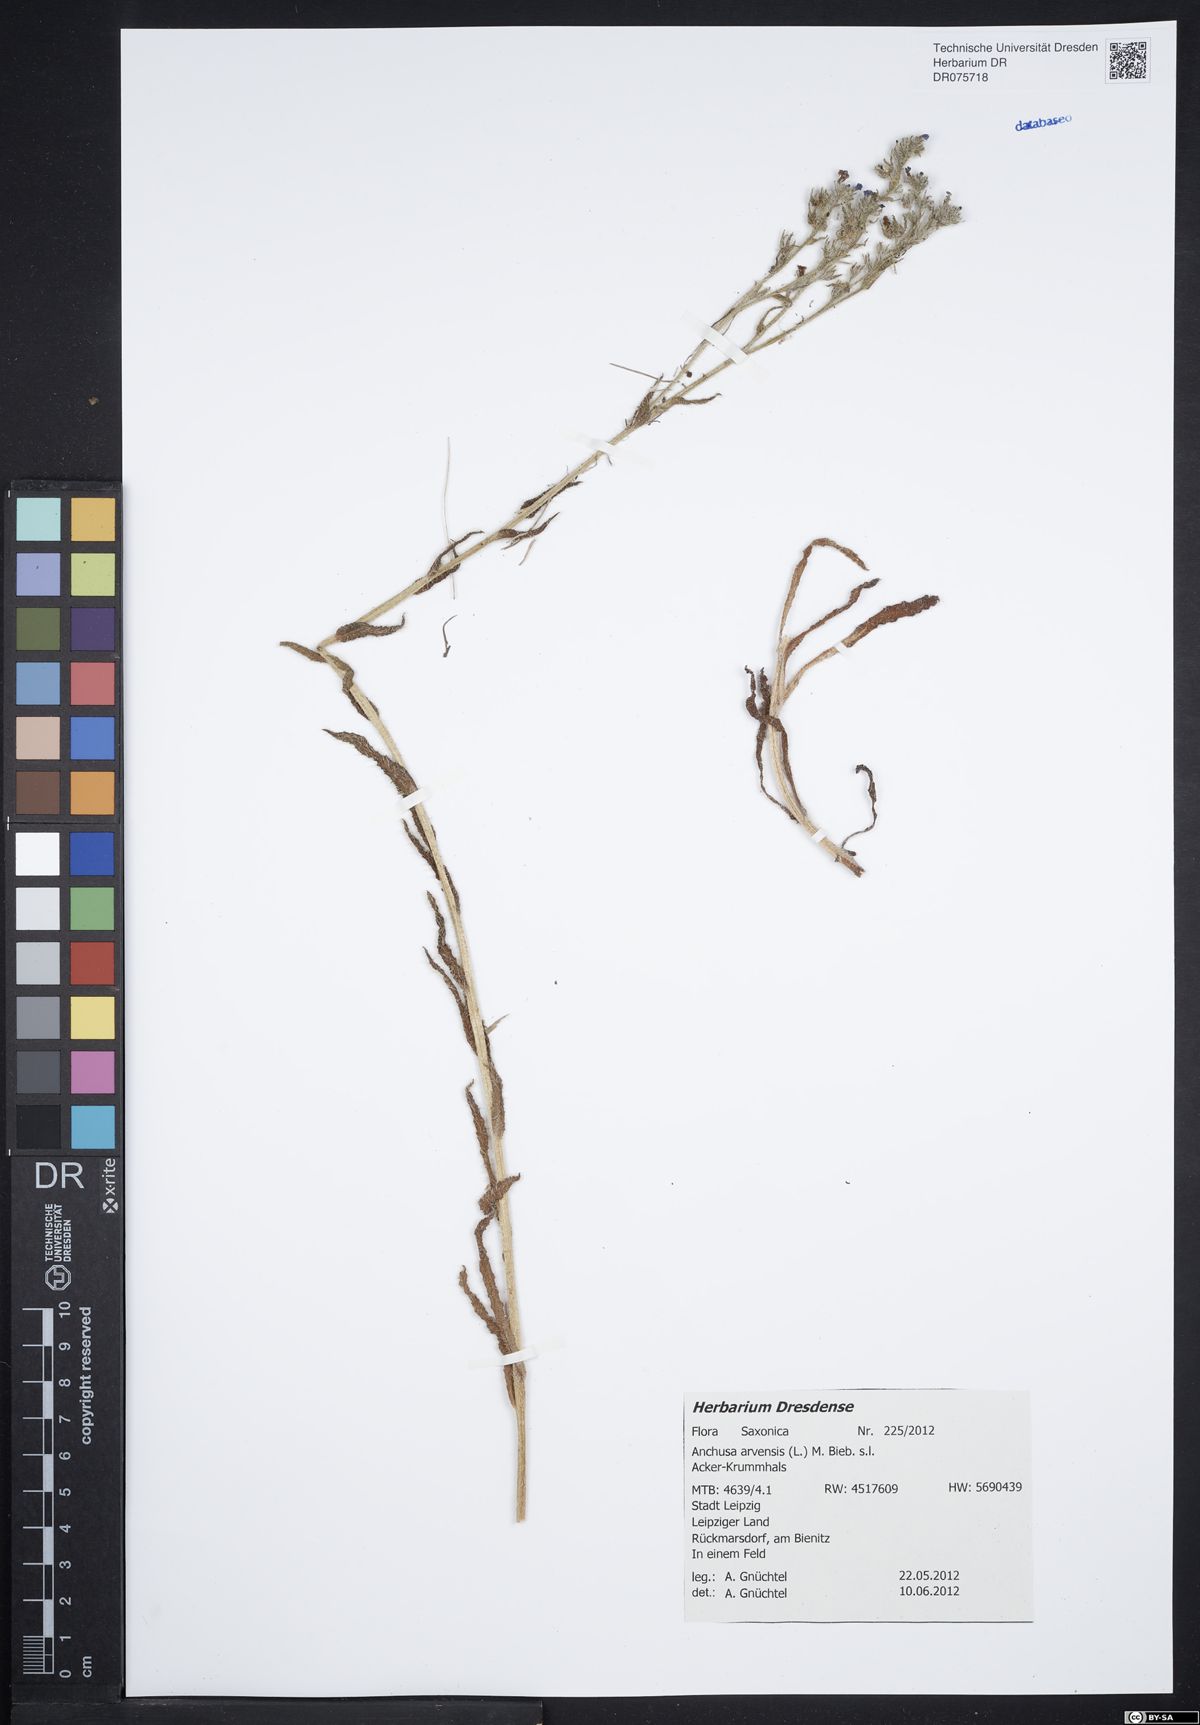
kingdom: Plantae
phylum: Tracheophyta
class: Magnoliopsida
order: Boraginales
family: Boraginaceae
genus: Lycopsis
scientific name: Lycopsis arvensis
